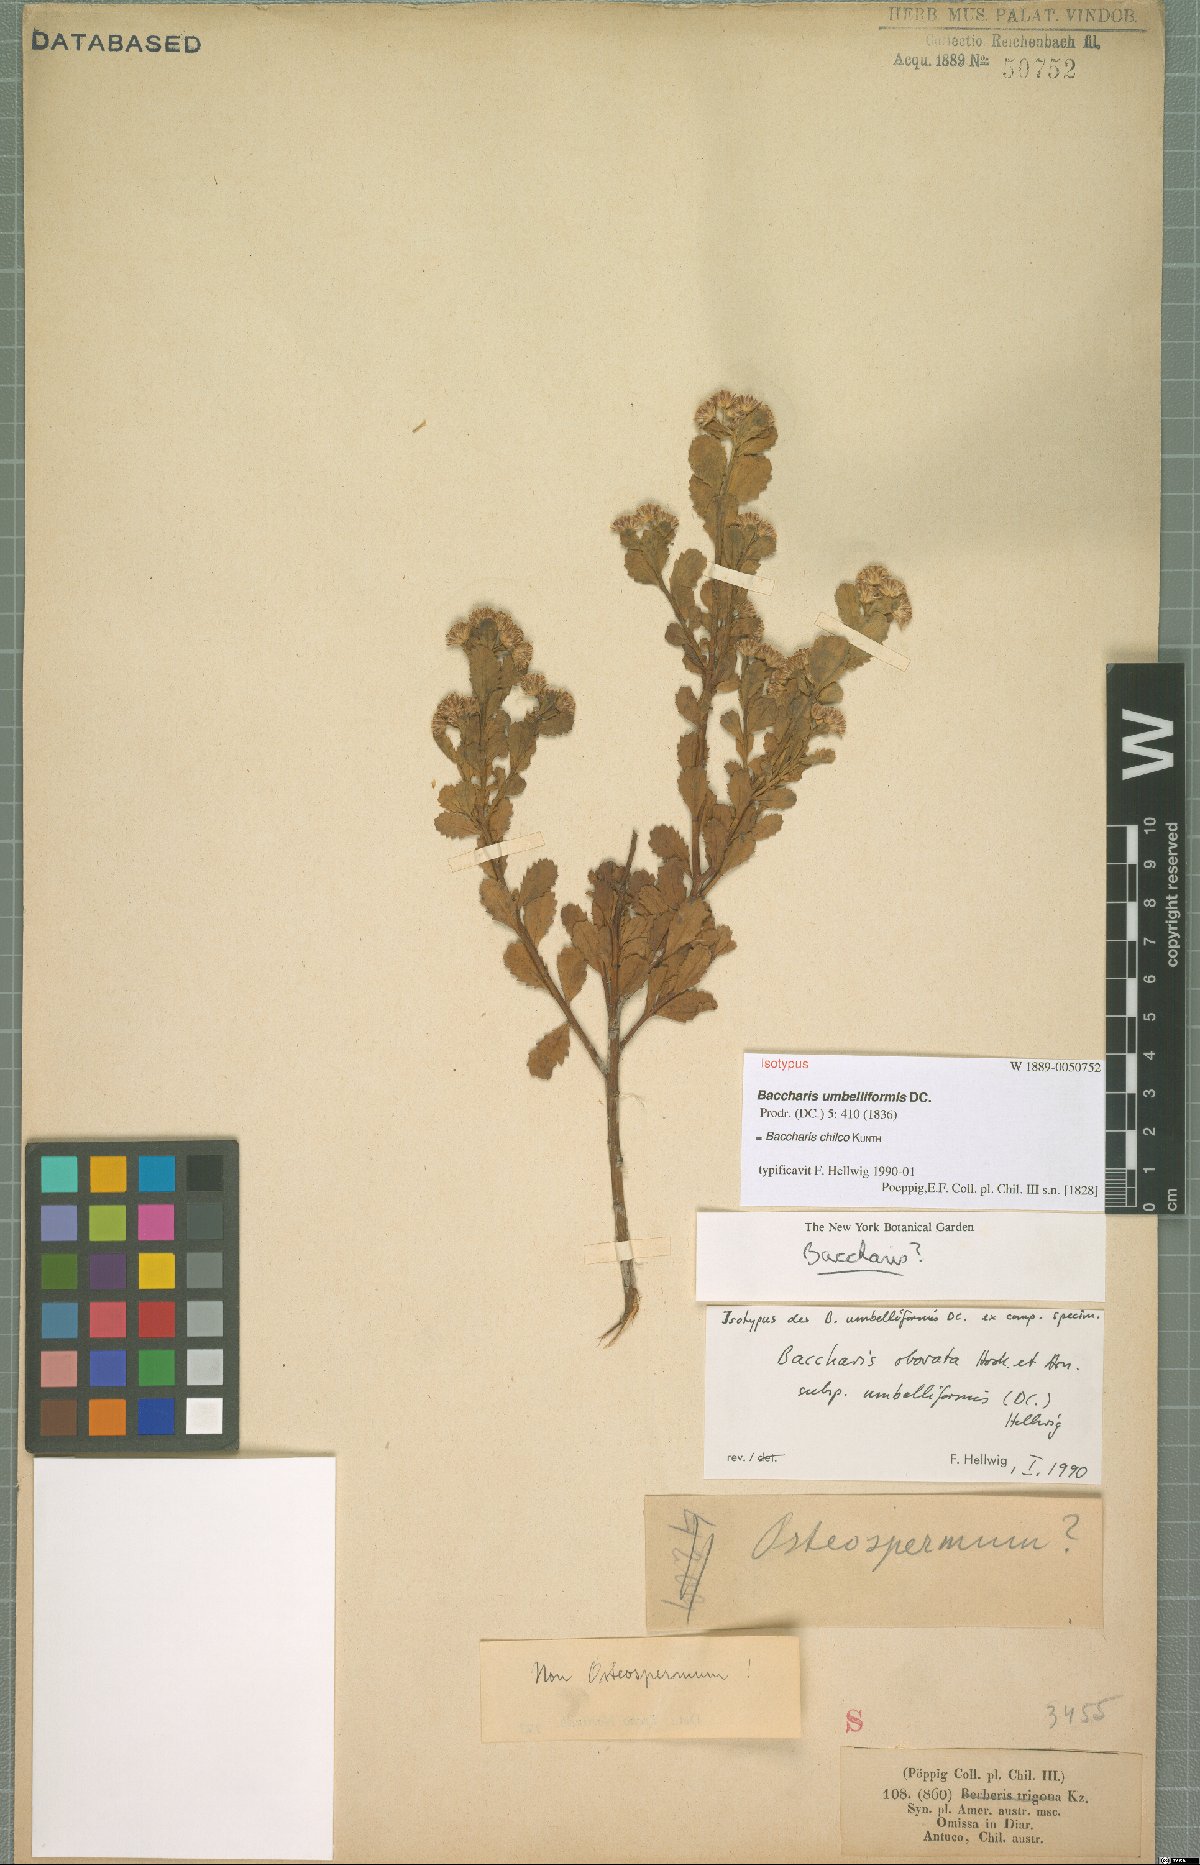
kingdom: Plantae
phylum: Tracheophyta
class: Magnoliopsida
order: Asterales
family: Asteraceae
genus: Baccharis
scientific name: Baccharis linearifolia
